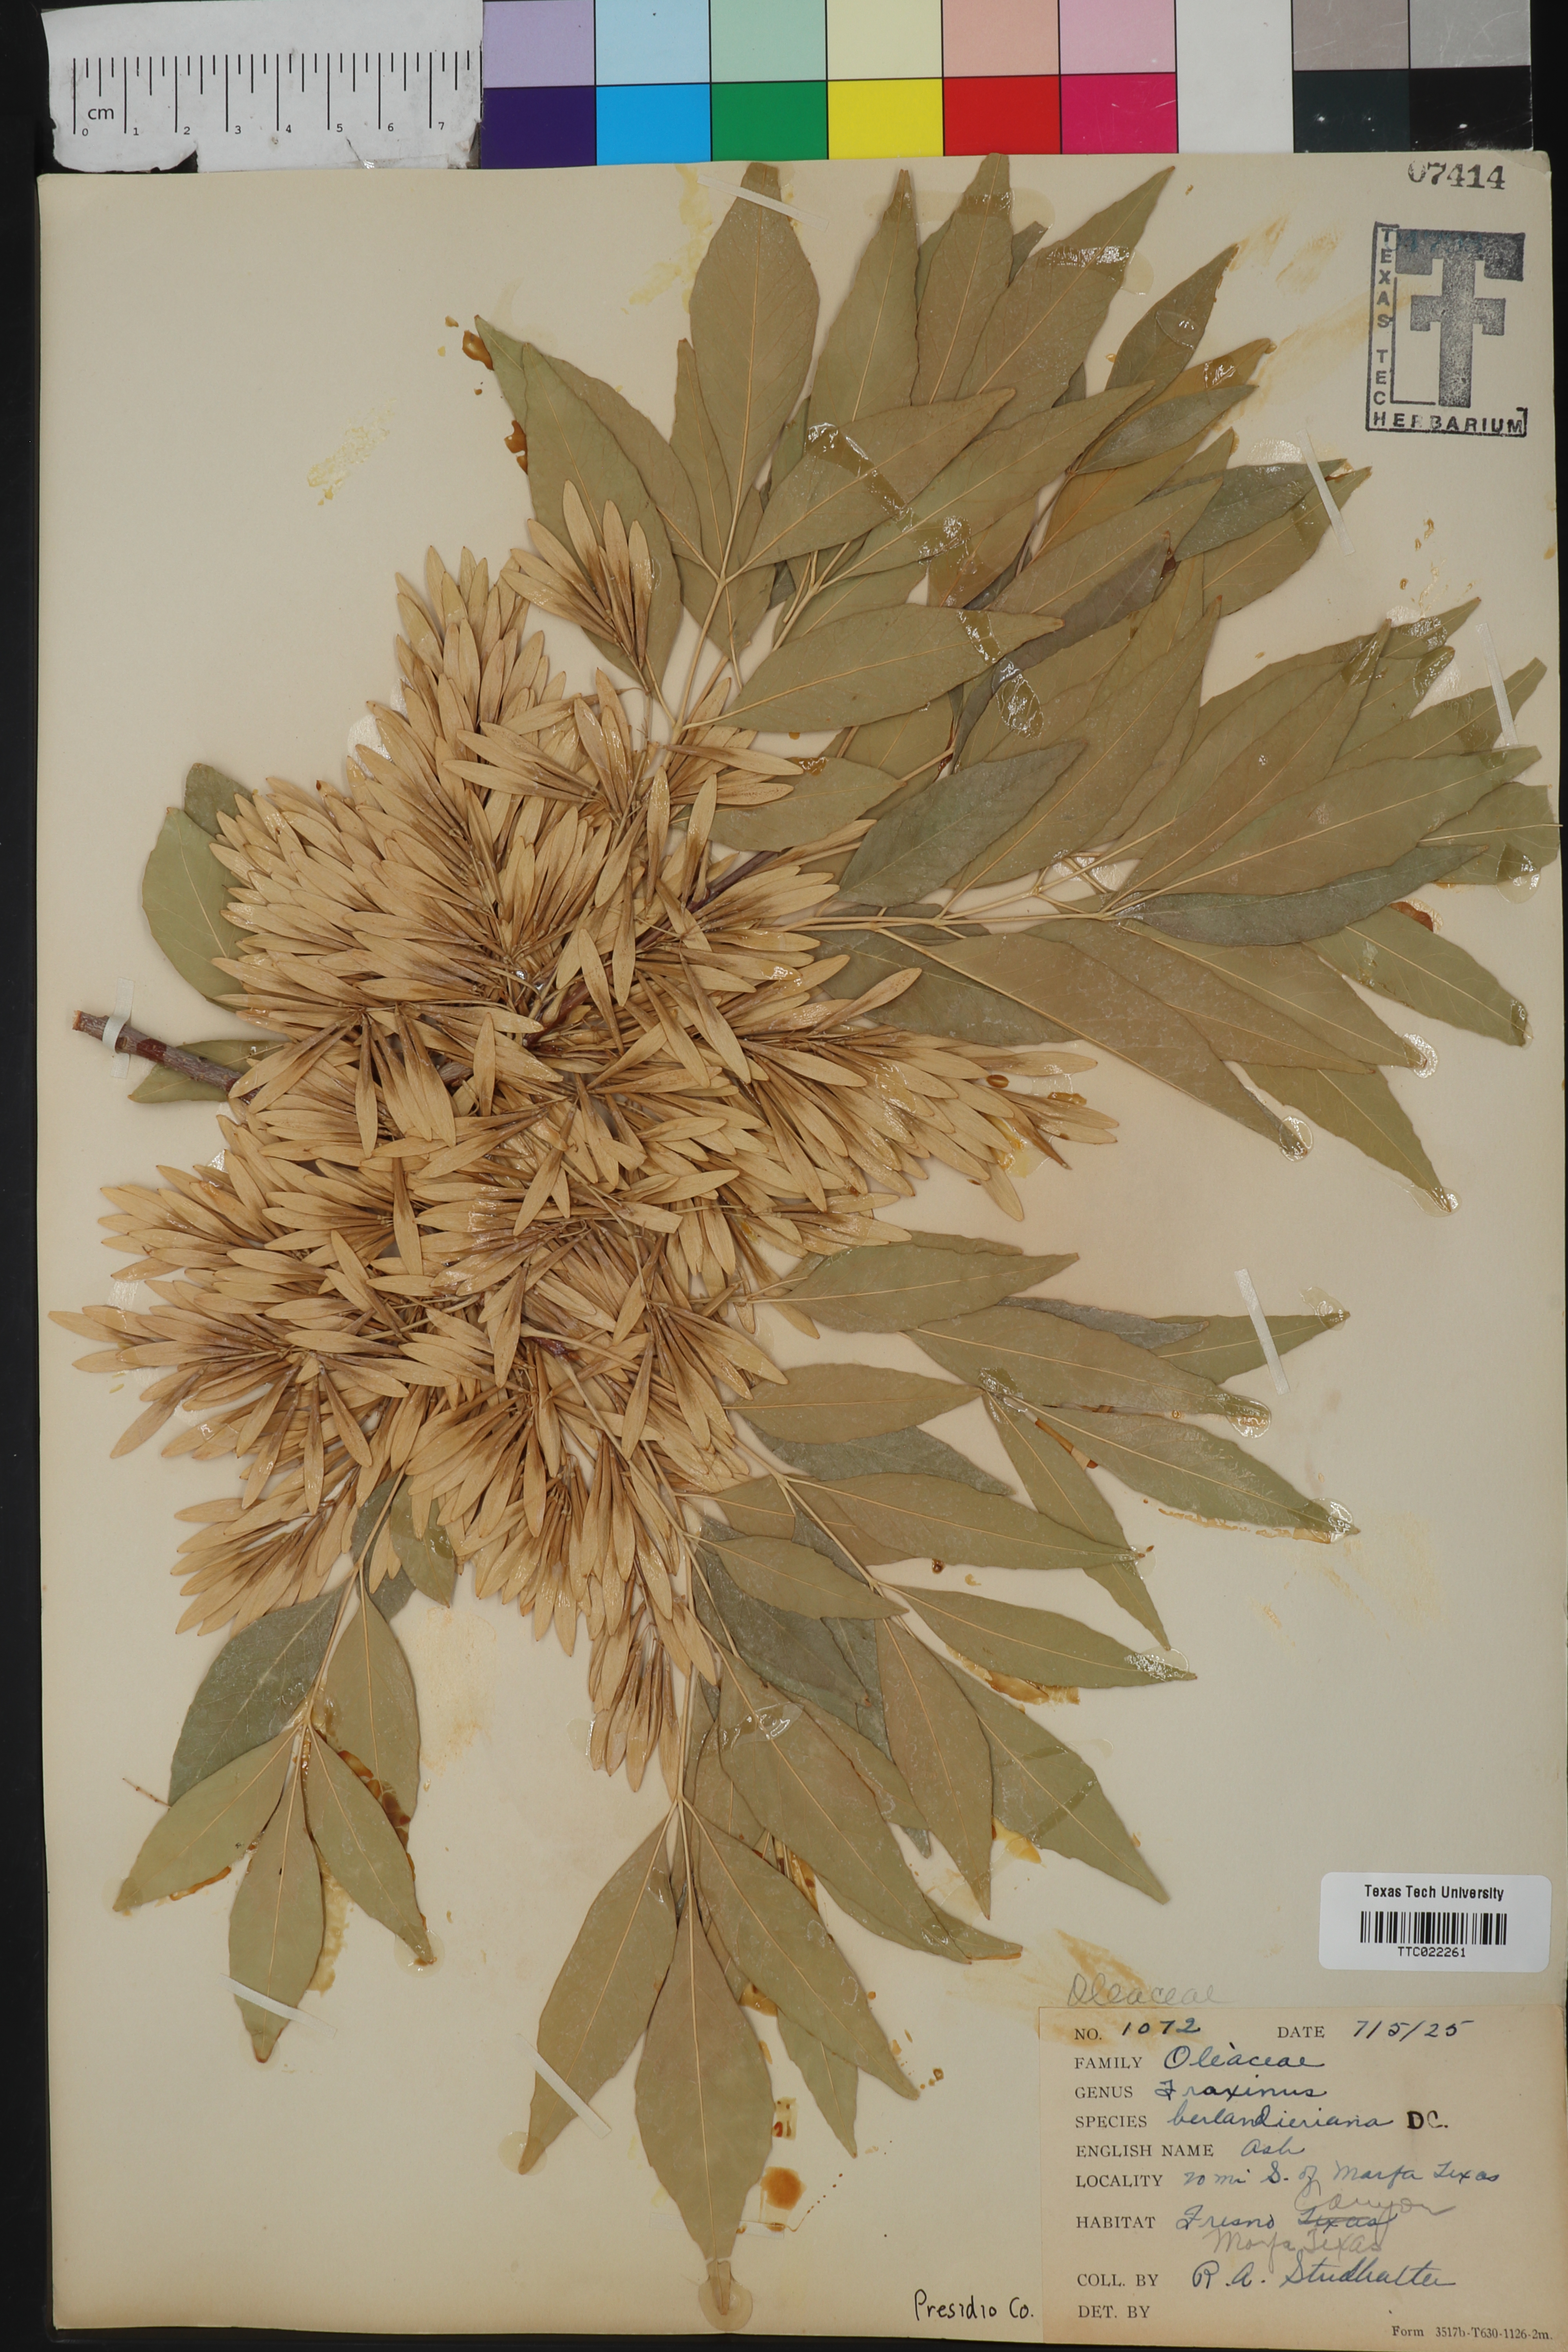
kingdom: Plantae
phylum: Tracheophyta
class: Magnoliopsida
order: Lamiales
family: Oleaceae
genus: Fraxinus
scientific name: Fraxinus berlandieriana
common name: Berlandier ash
